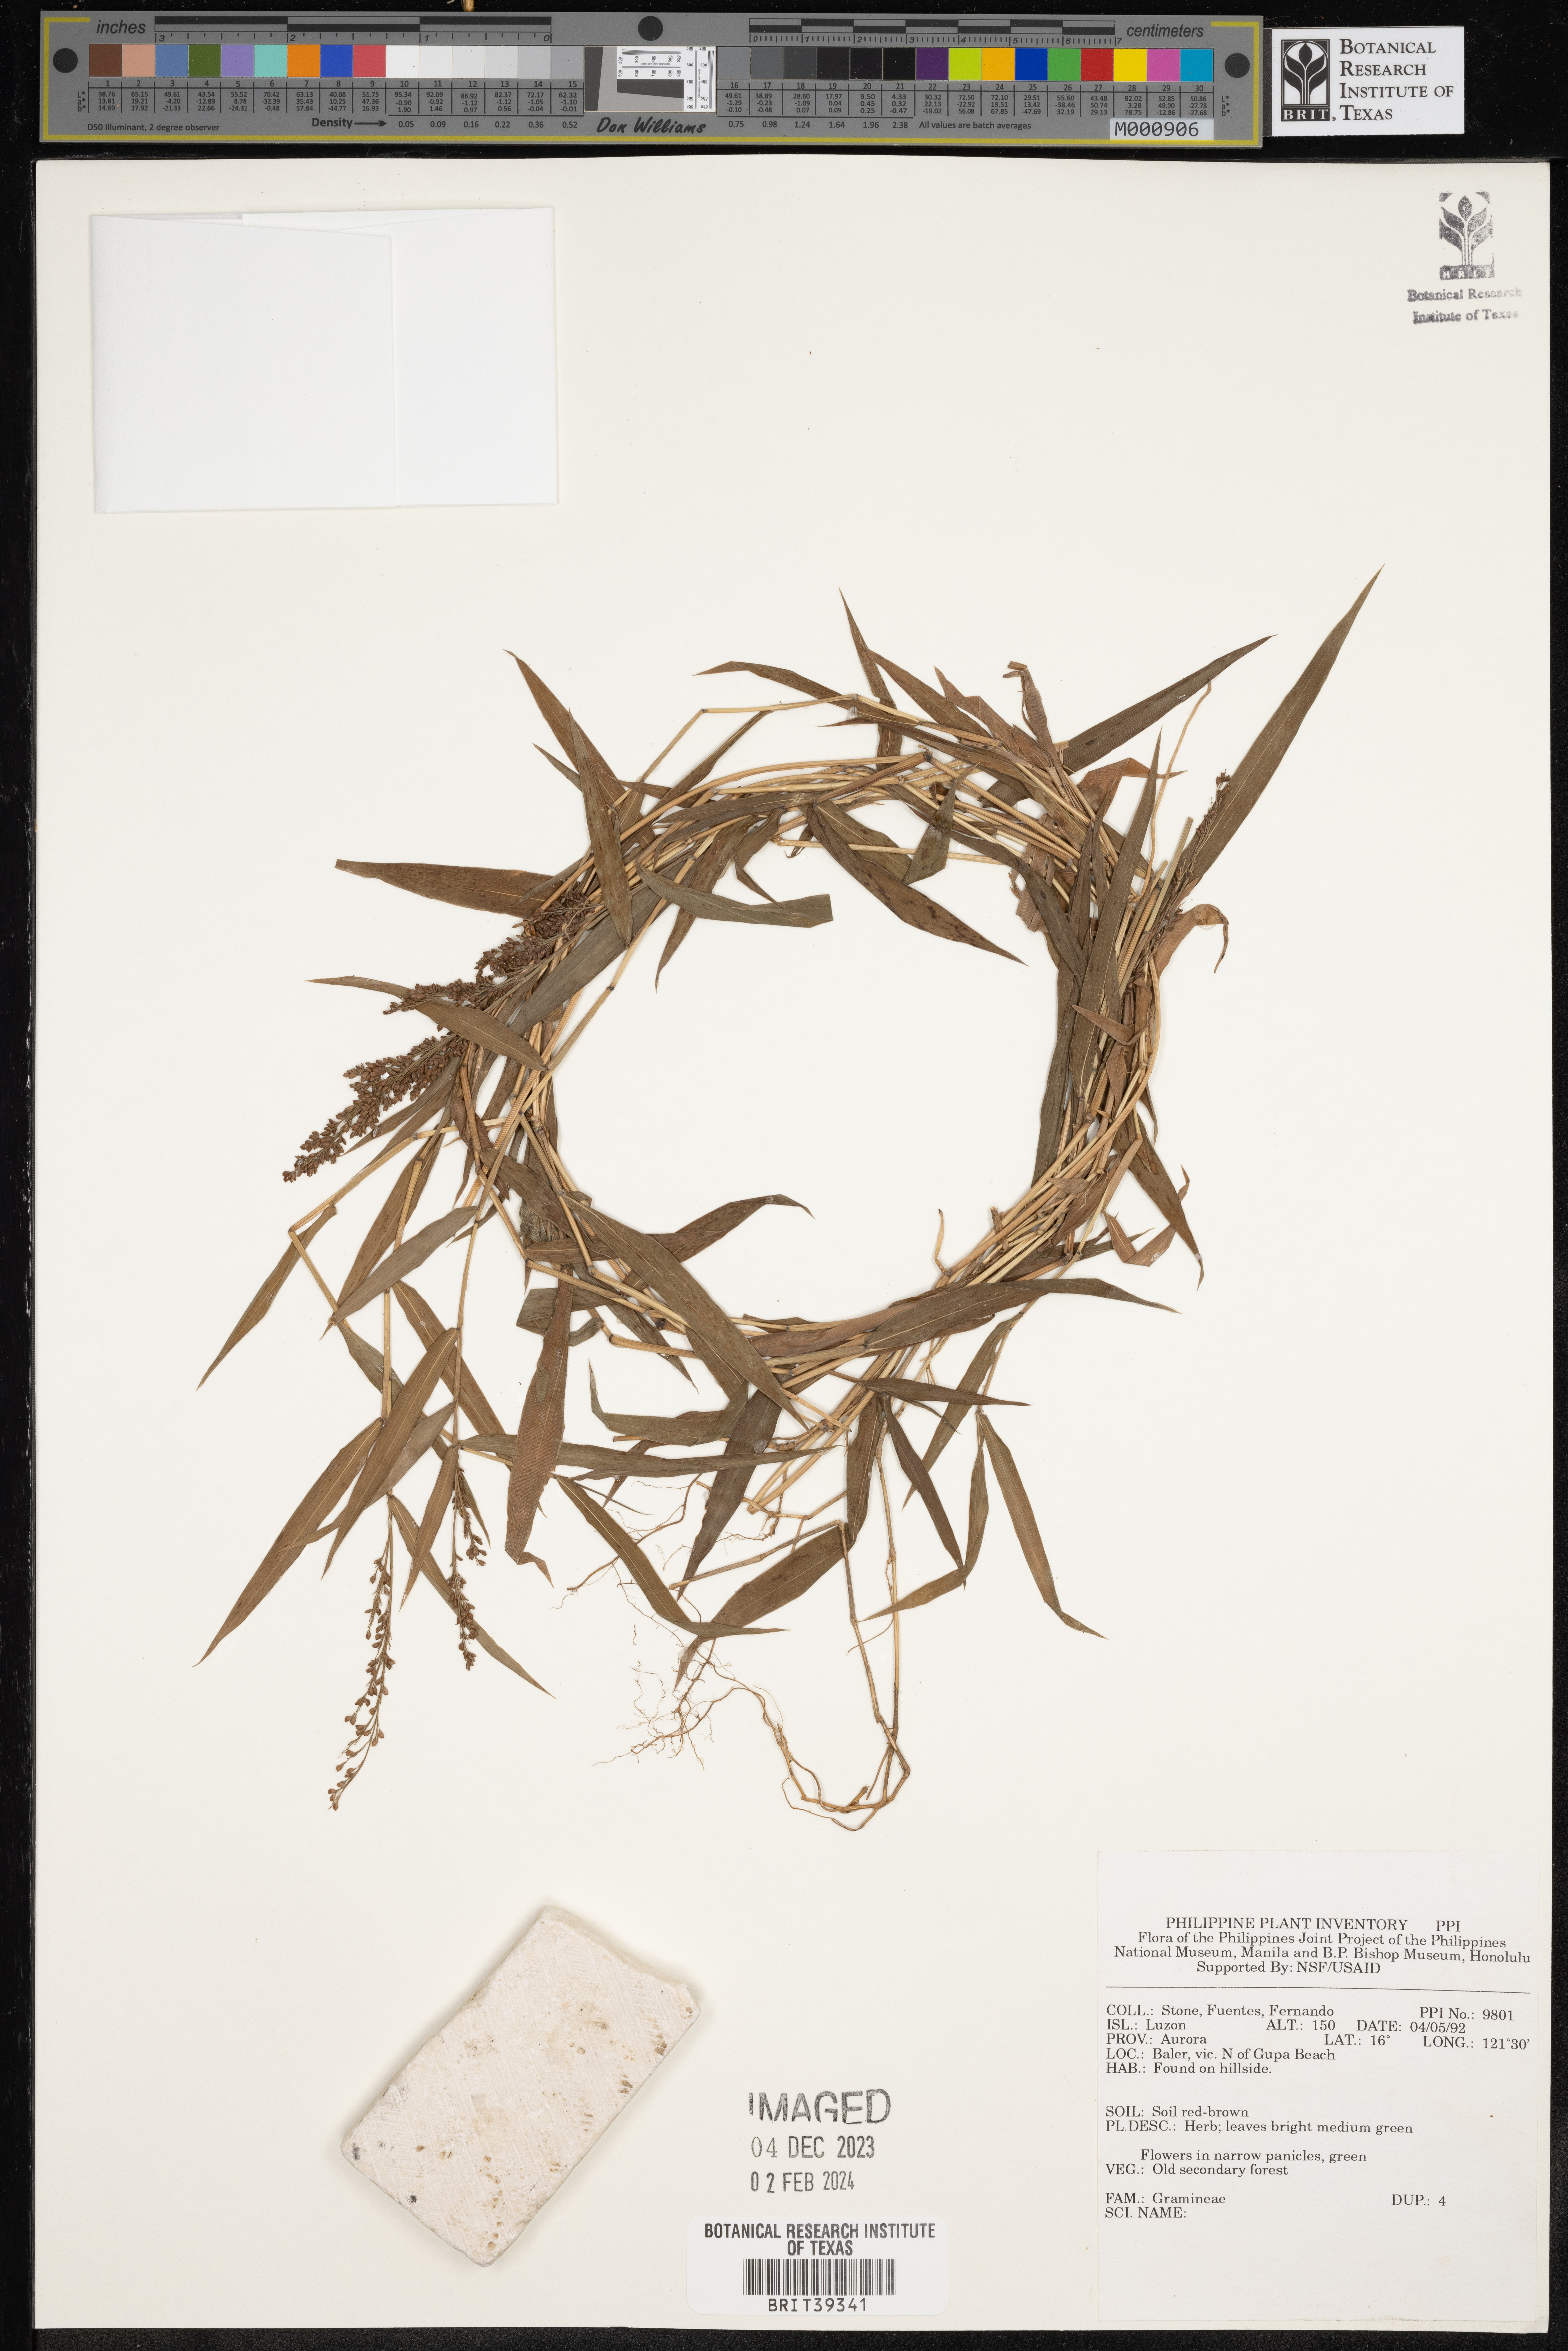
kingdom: Plantae
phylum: Tracheophyta
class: Liliopsida
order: Poales
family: Poaceae
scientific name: Poaceae
